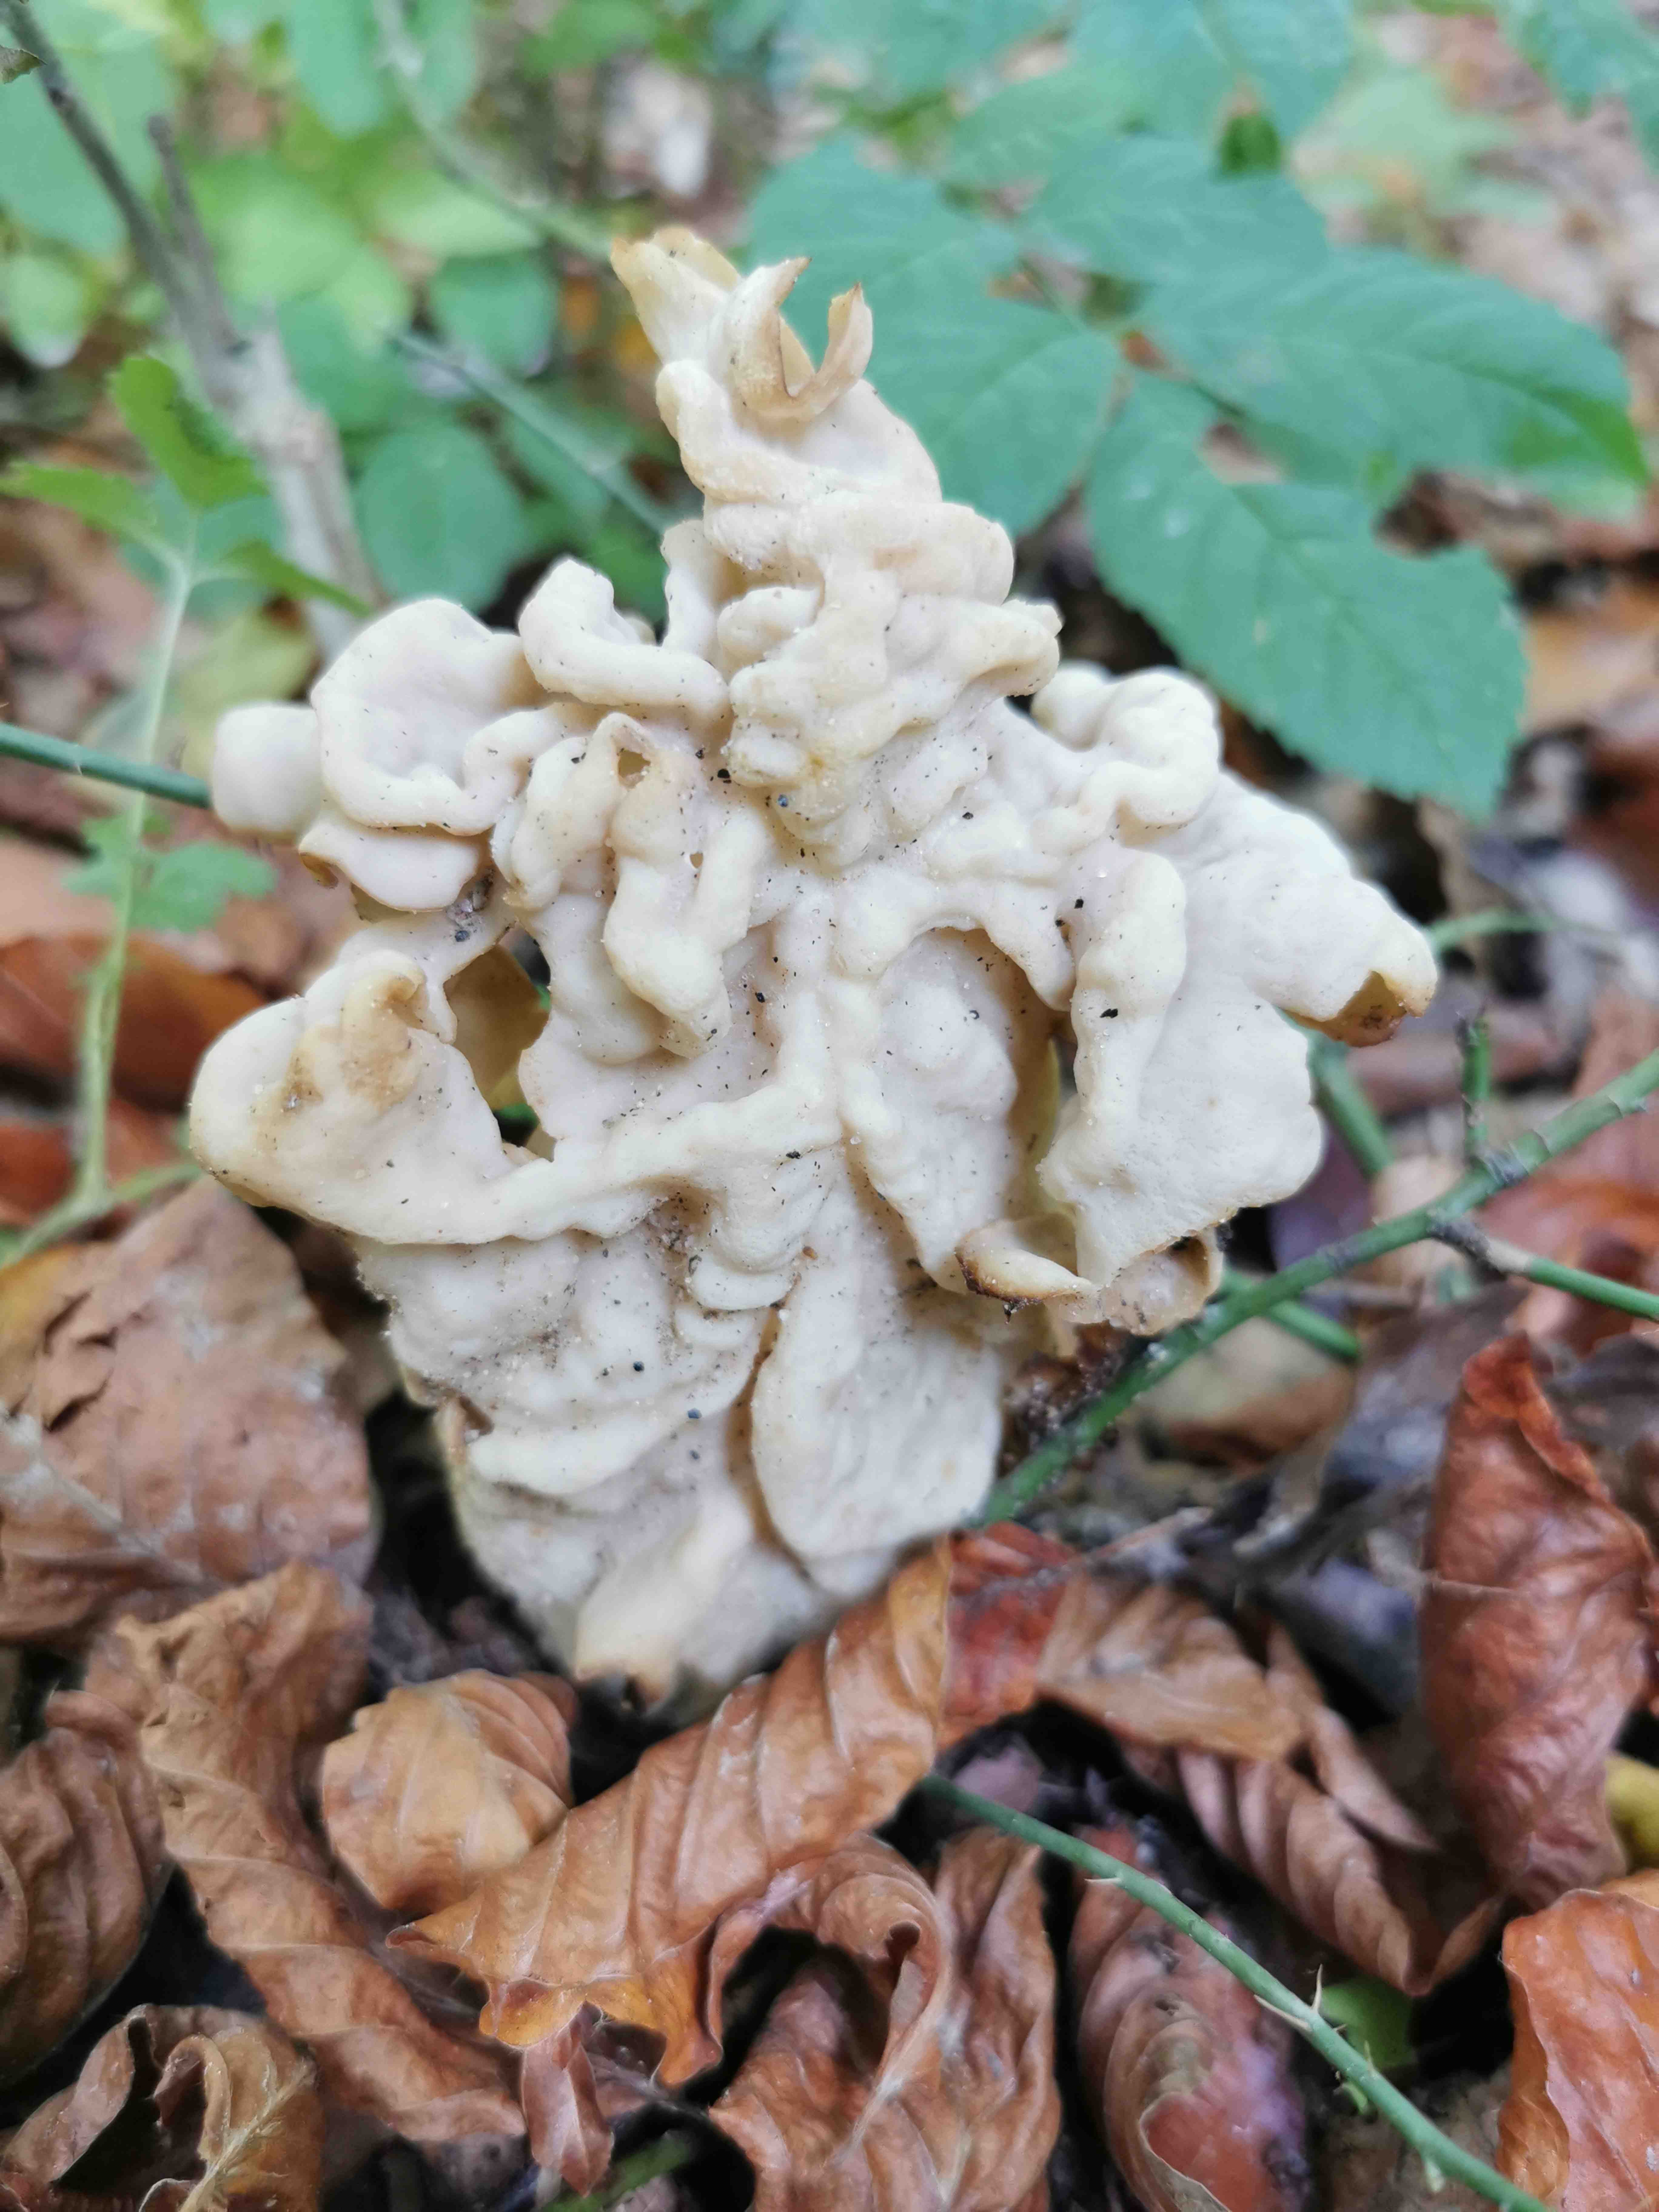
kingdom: Fungi
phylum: Ascomycota
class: Pezizomycetes
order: Pezizales
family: Helvellaceae
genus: Helvella
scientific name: Helvella crispa
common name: kruset foldhat
